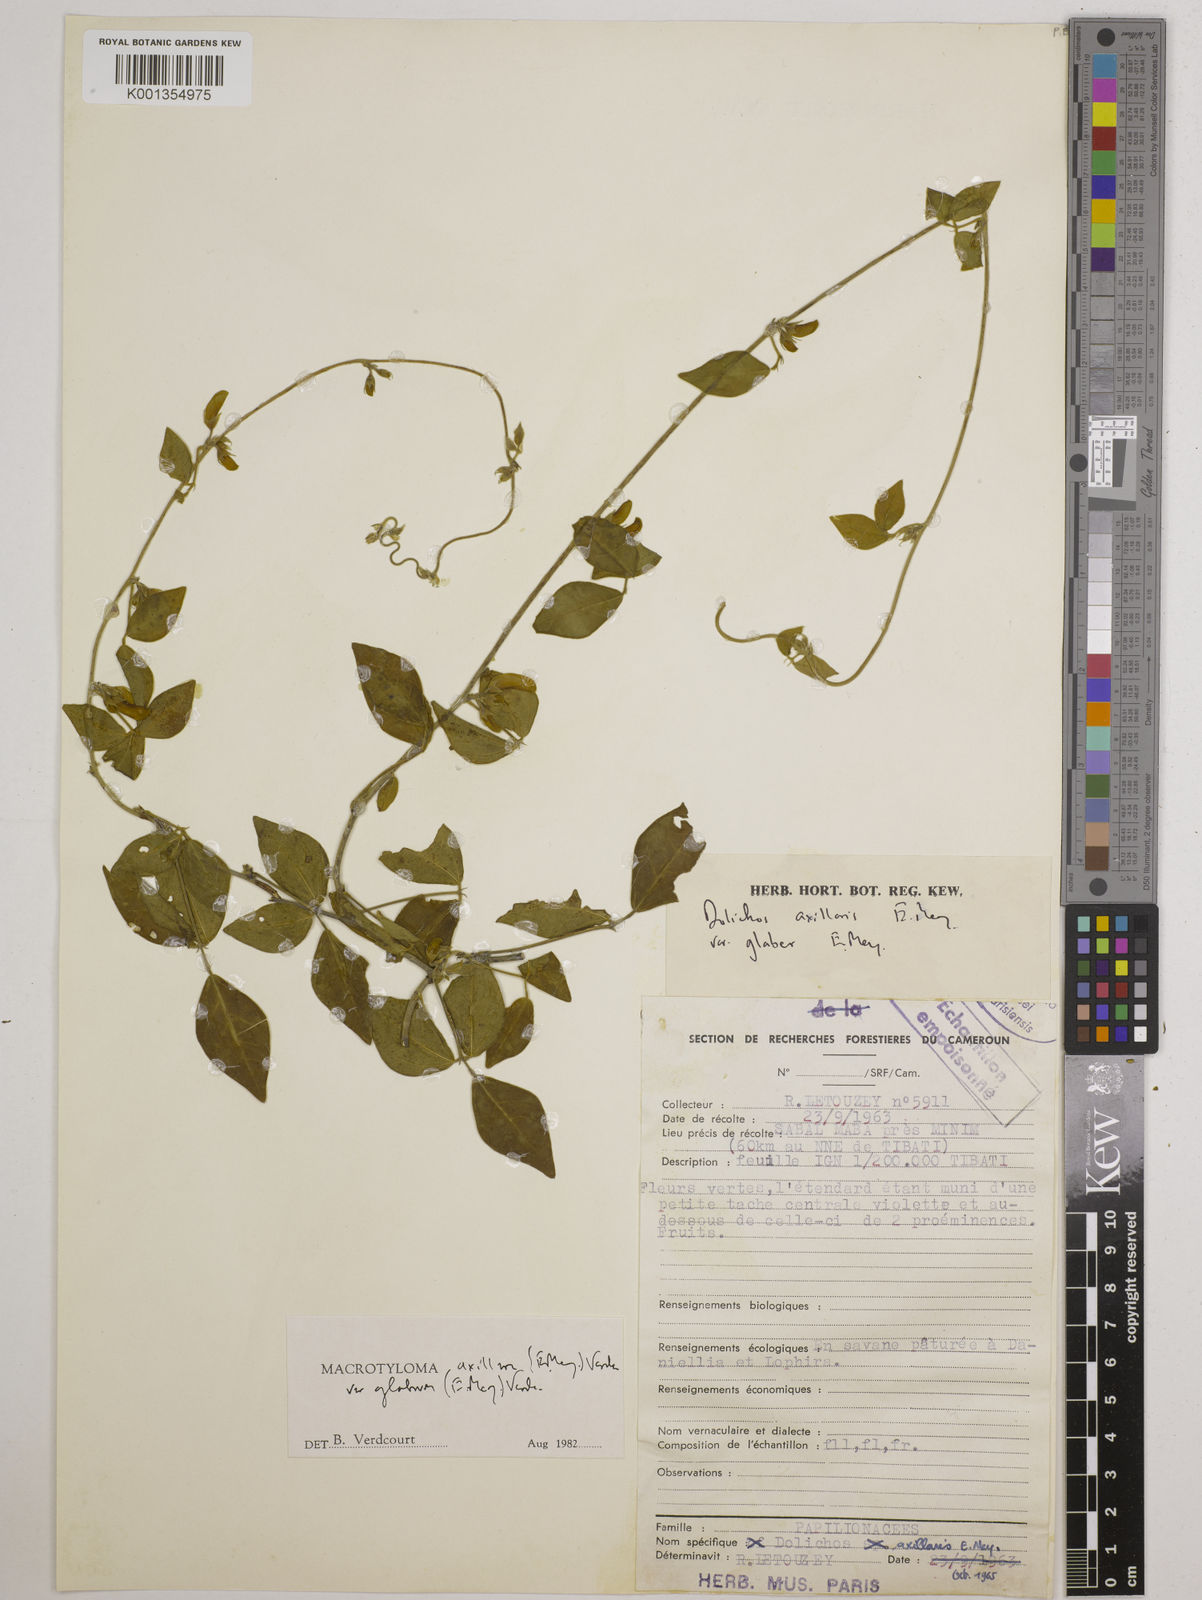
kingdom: Plantae
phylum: Tracheophyta
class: Magnoliopsida
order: Fabales
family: Fabaceae
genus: Macrotyloma
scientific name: Macrotyloma
